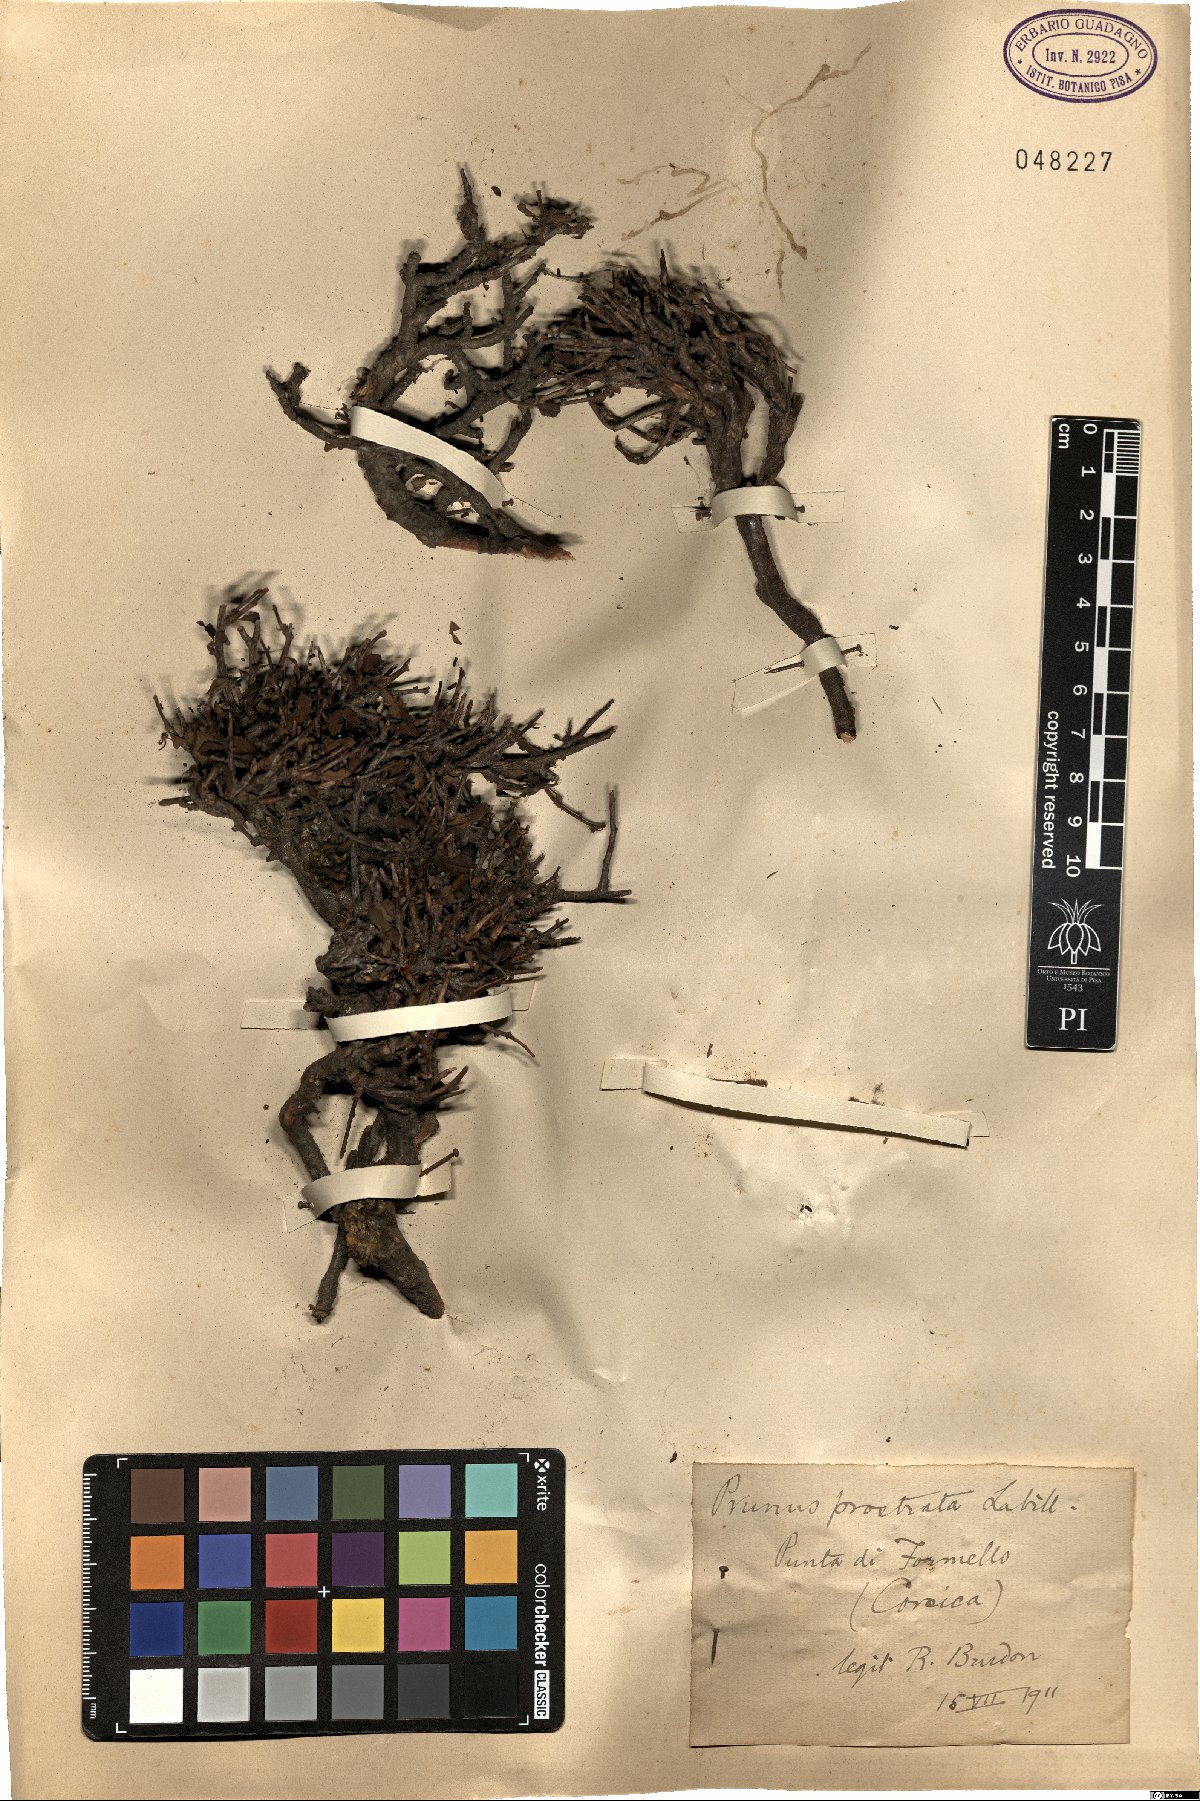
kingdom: Plantae
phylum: Tracheophyta
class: Magnoliopsida
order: Rosales
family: Rosaceae
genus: Prunus
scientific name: Prunus prostrata
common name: Mountain cherry
